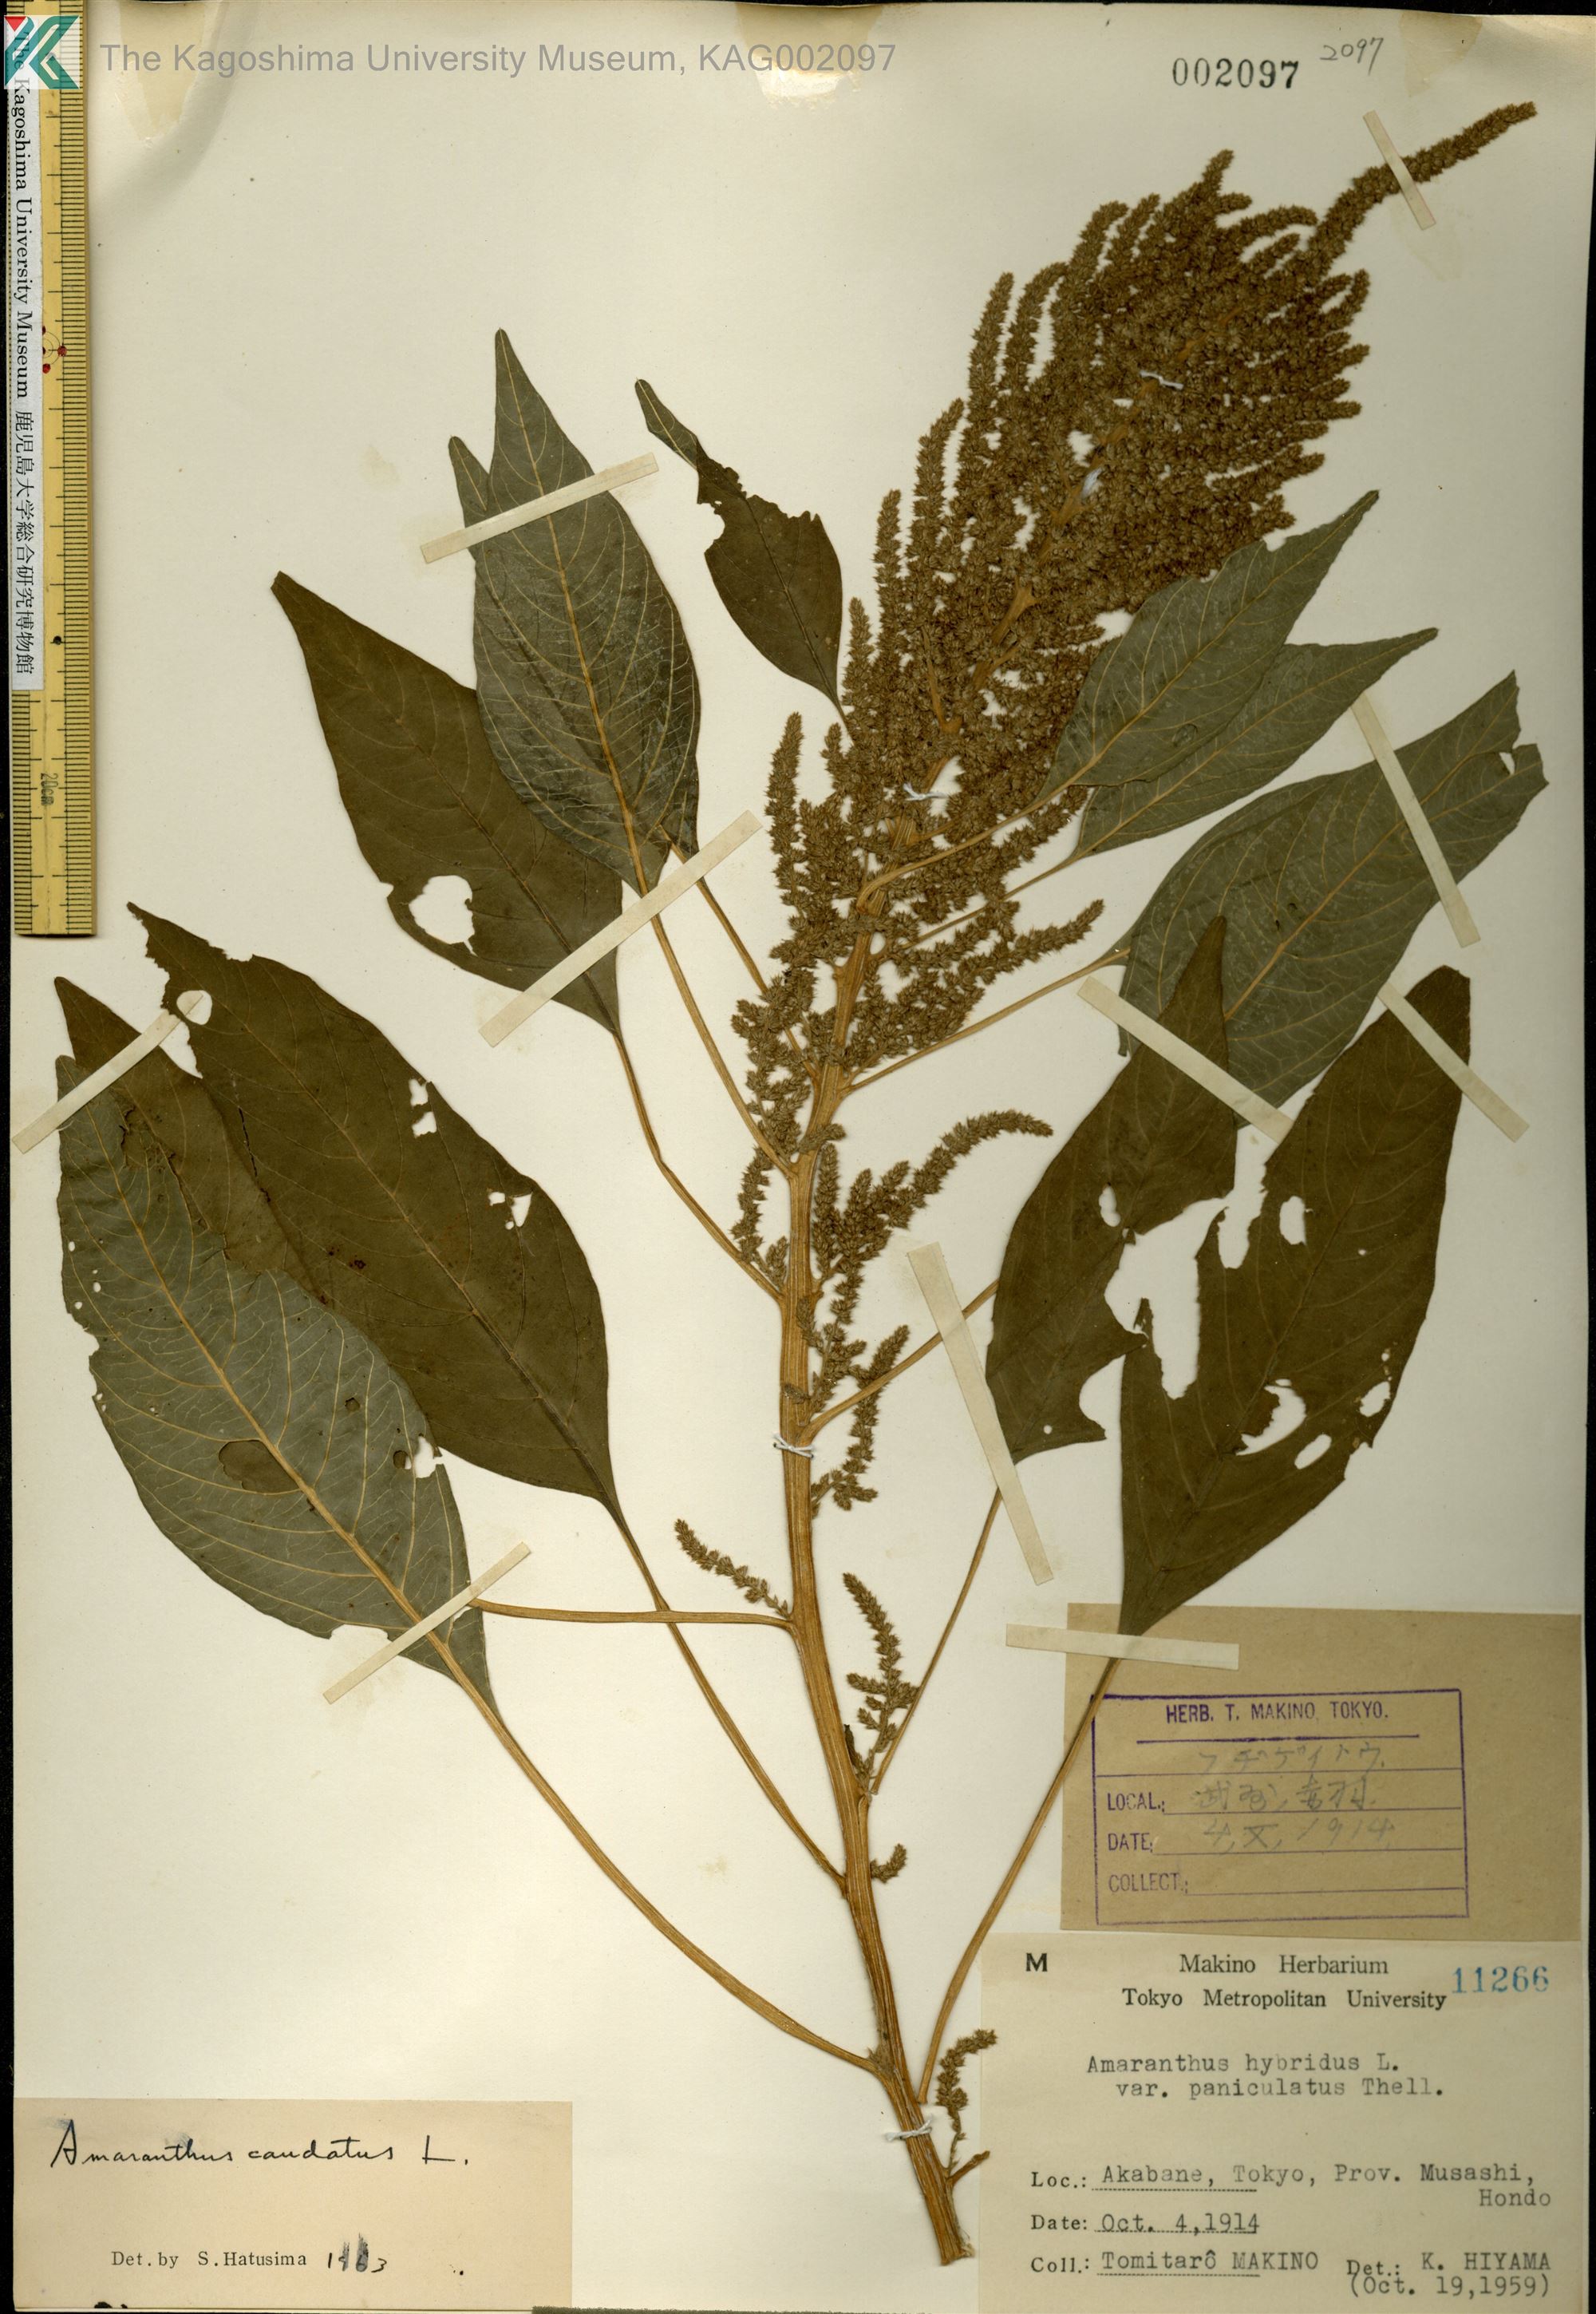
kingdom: Plantae
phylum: Tracheophyta
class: Magnoliopsida
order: Caryophyllales
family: Amaranthaceae
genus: Amaranthus
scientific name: Amaranthus caudatus
